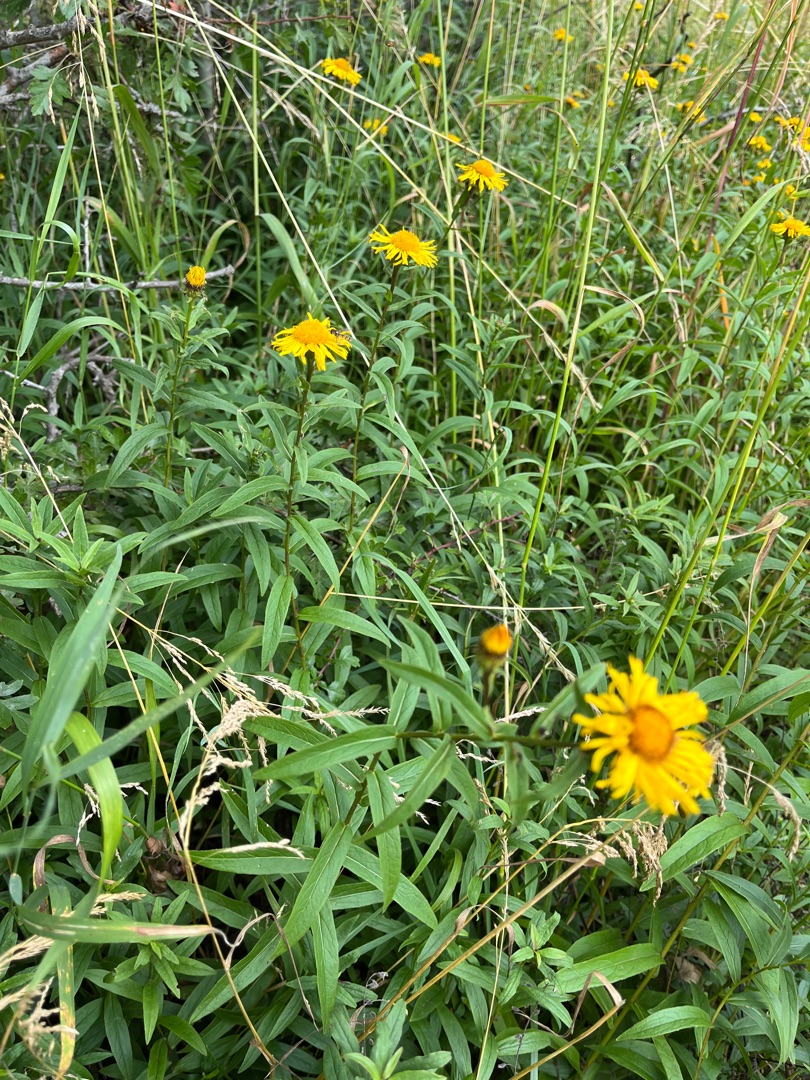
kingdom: Plantae
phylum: Tracheophyta
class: Magnoliopsida
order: Asterales
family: Asteraceae
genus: Pentanema
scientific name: Pentanema salicinum
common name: Pile-alant
